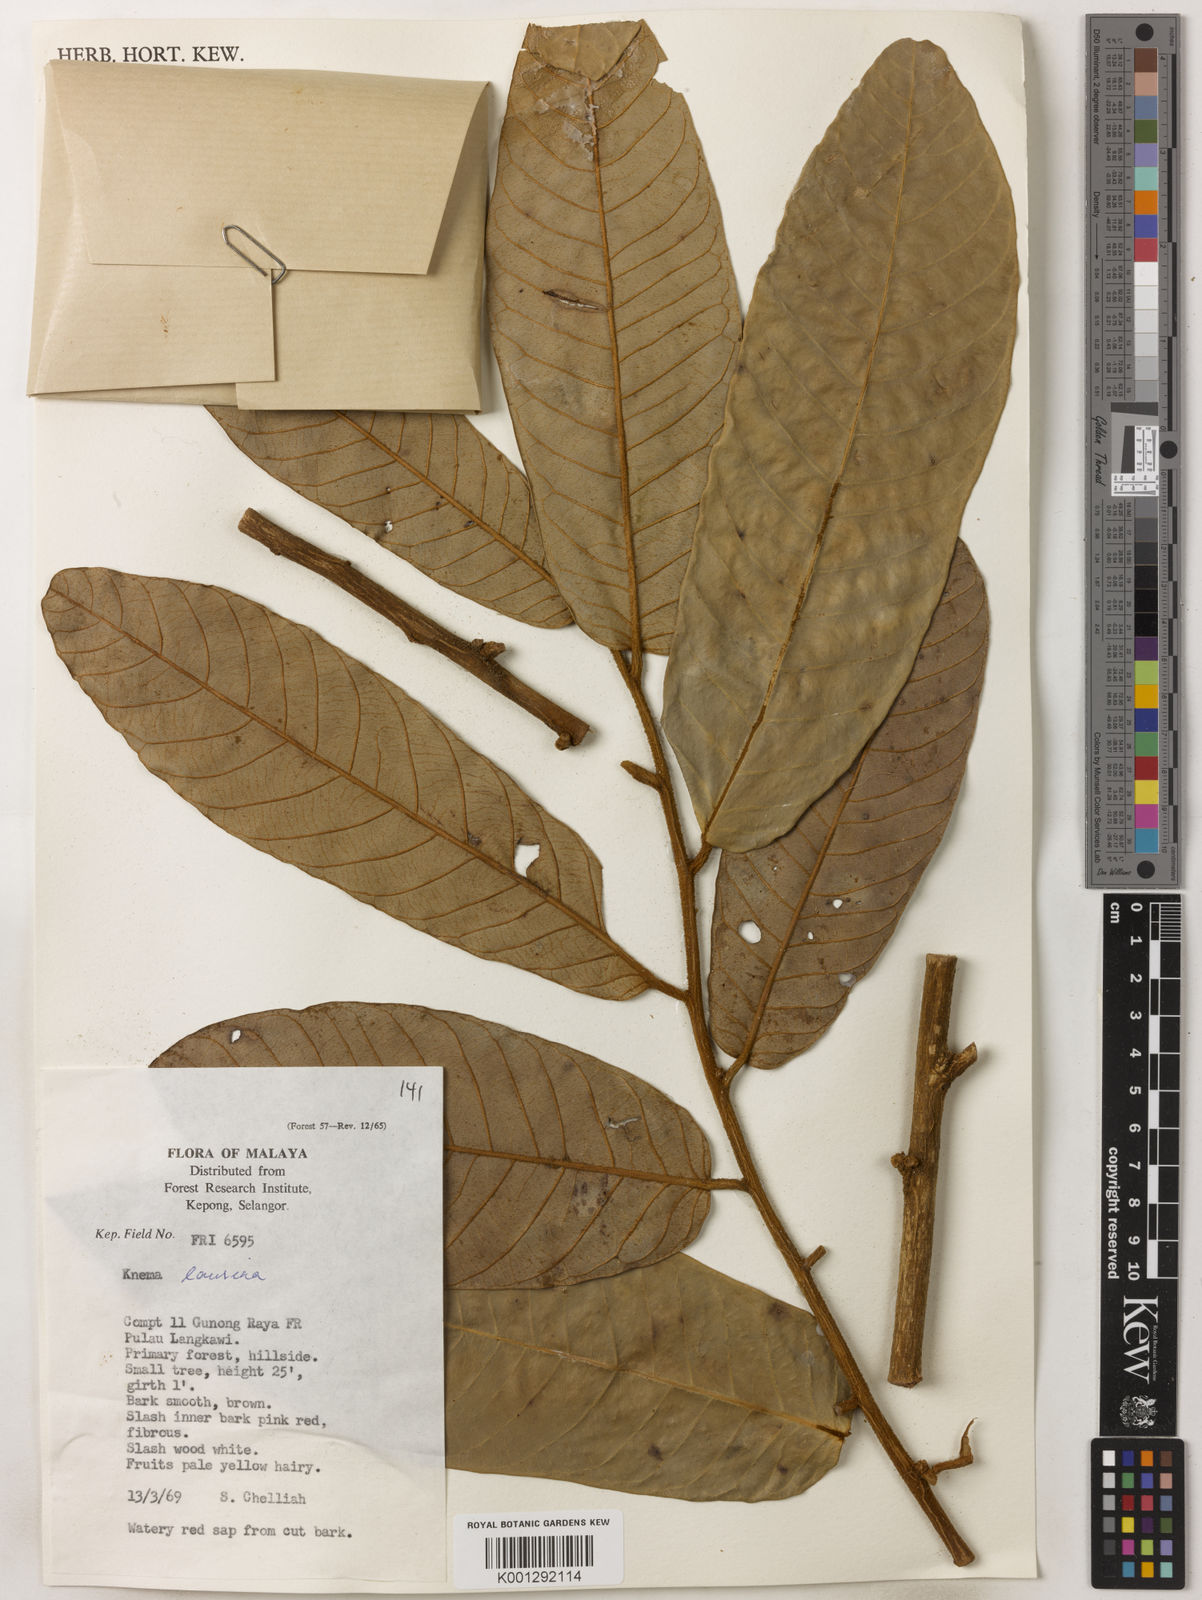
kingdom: Plantae
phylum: Tracheophyta
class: Magnoliopsida
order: Magnoliales
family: Myristicaceae
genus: Knema
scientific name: Knema laurina
